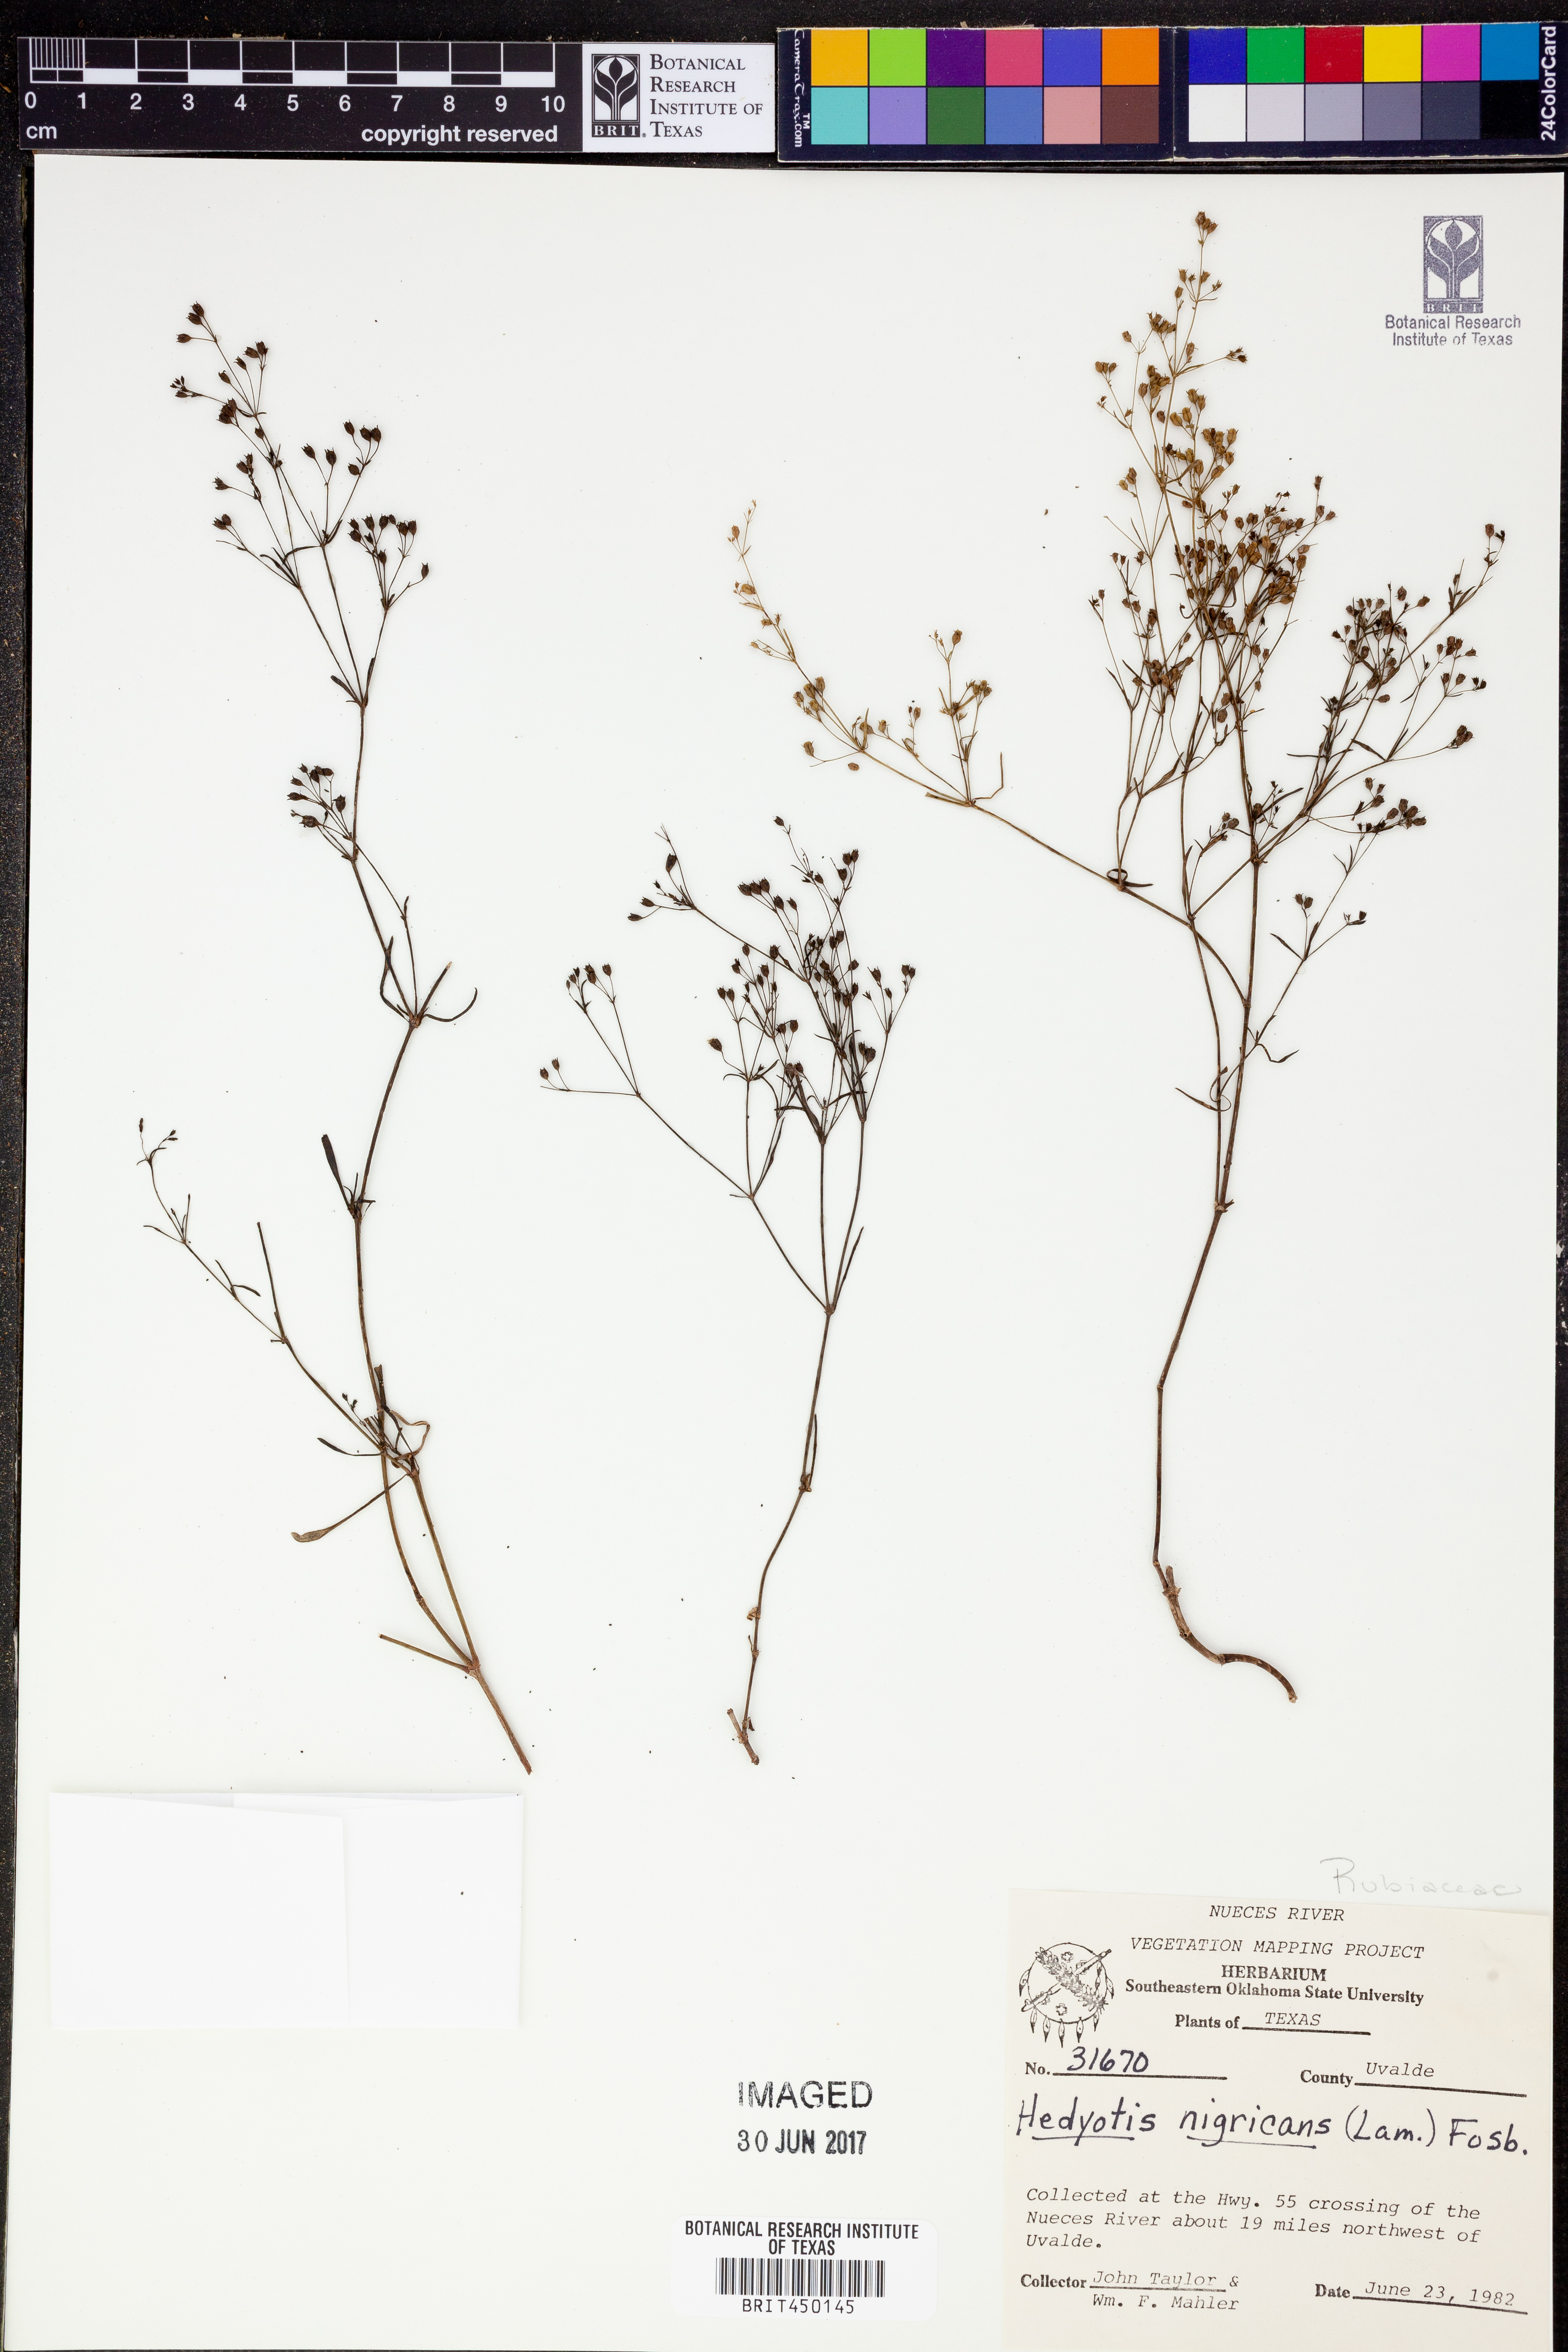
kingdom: Plantae
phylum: Tracheophyta
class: Magnoliopsida
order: Gentianales
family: Rubiaceae
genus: Stenaria
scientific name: Stenaria nigricans
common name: Diamondflowers
